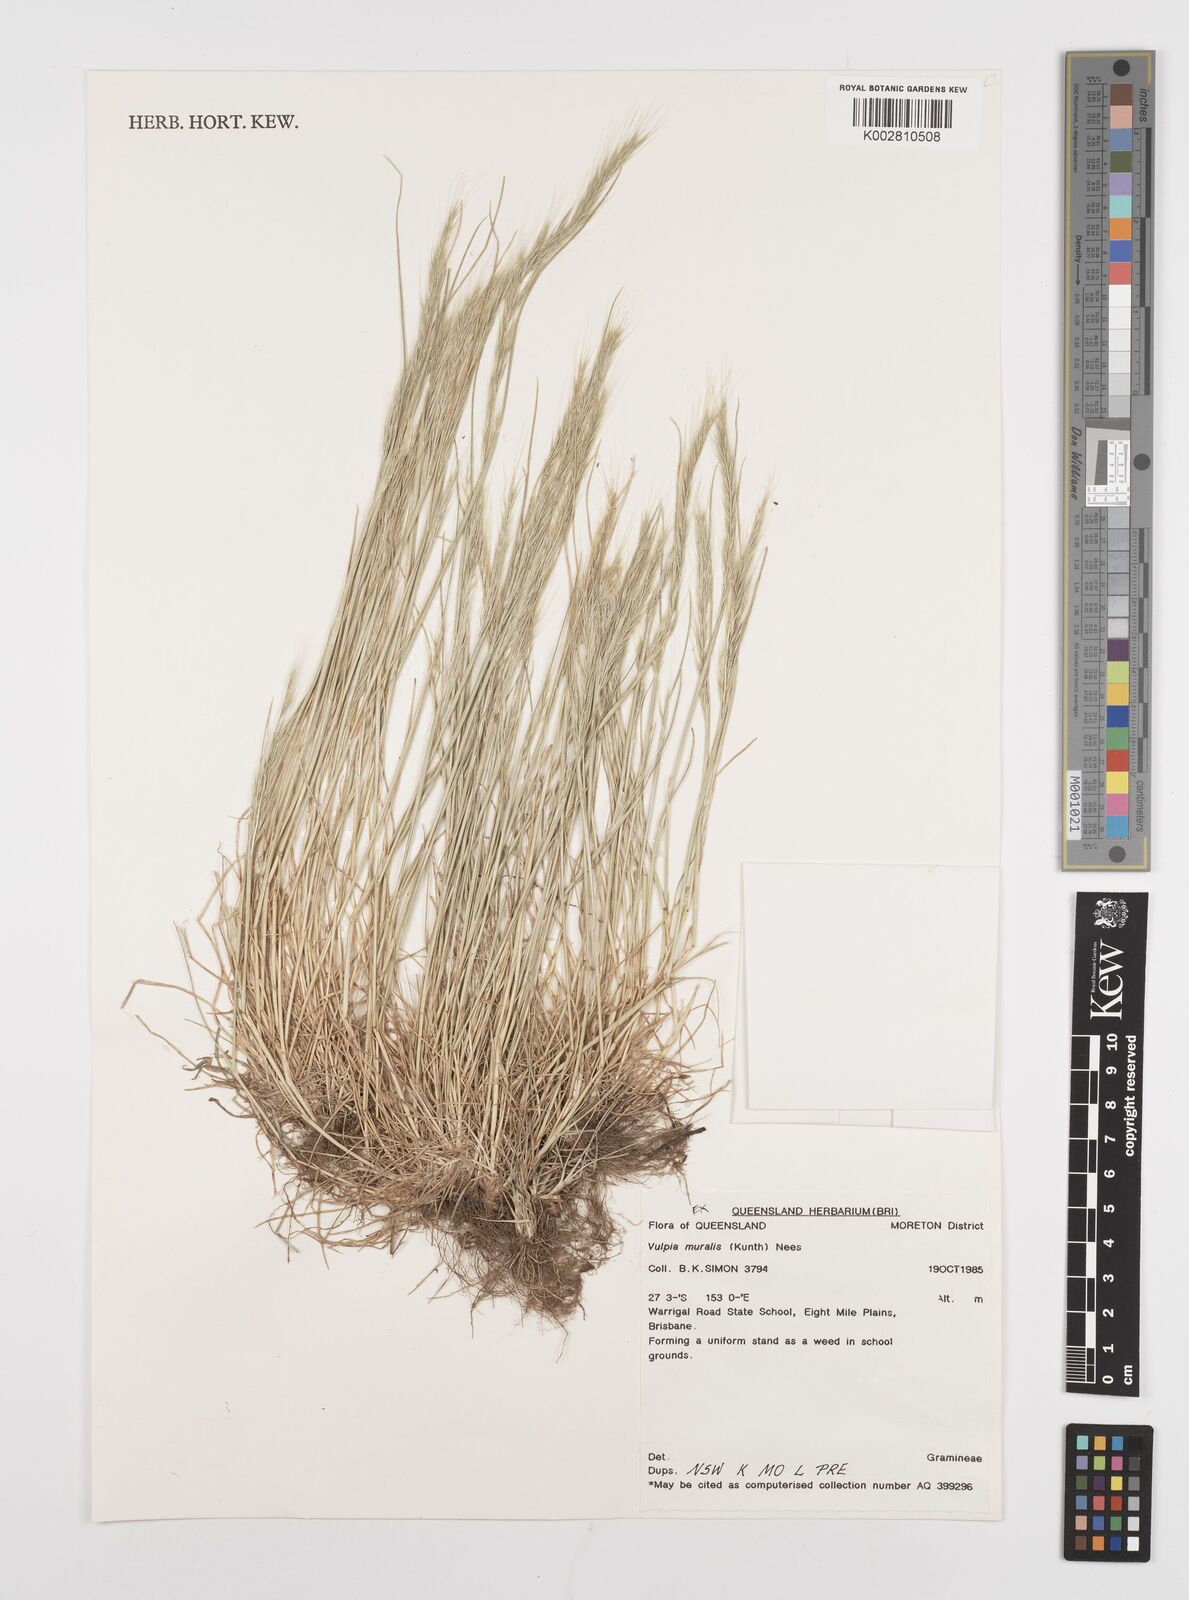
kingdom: Plantae
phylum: Tracheophyta
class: Liliopsida
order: Poales
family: Poaceae
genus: Festuca
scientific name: Festuca muralis
